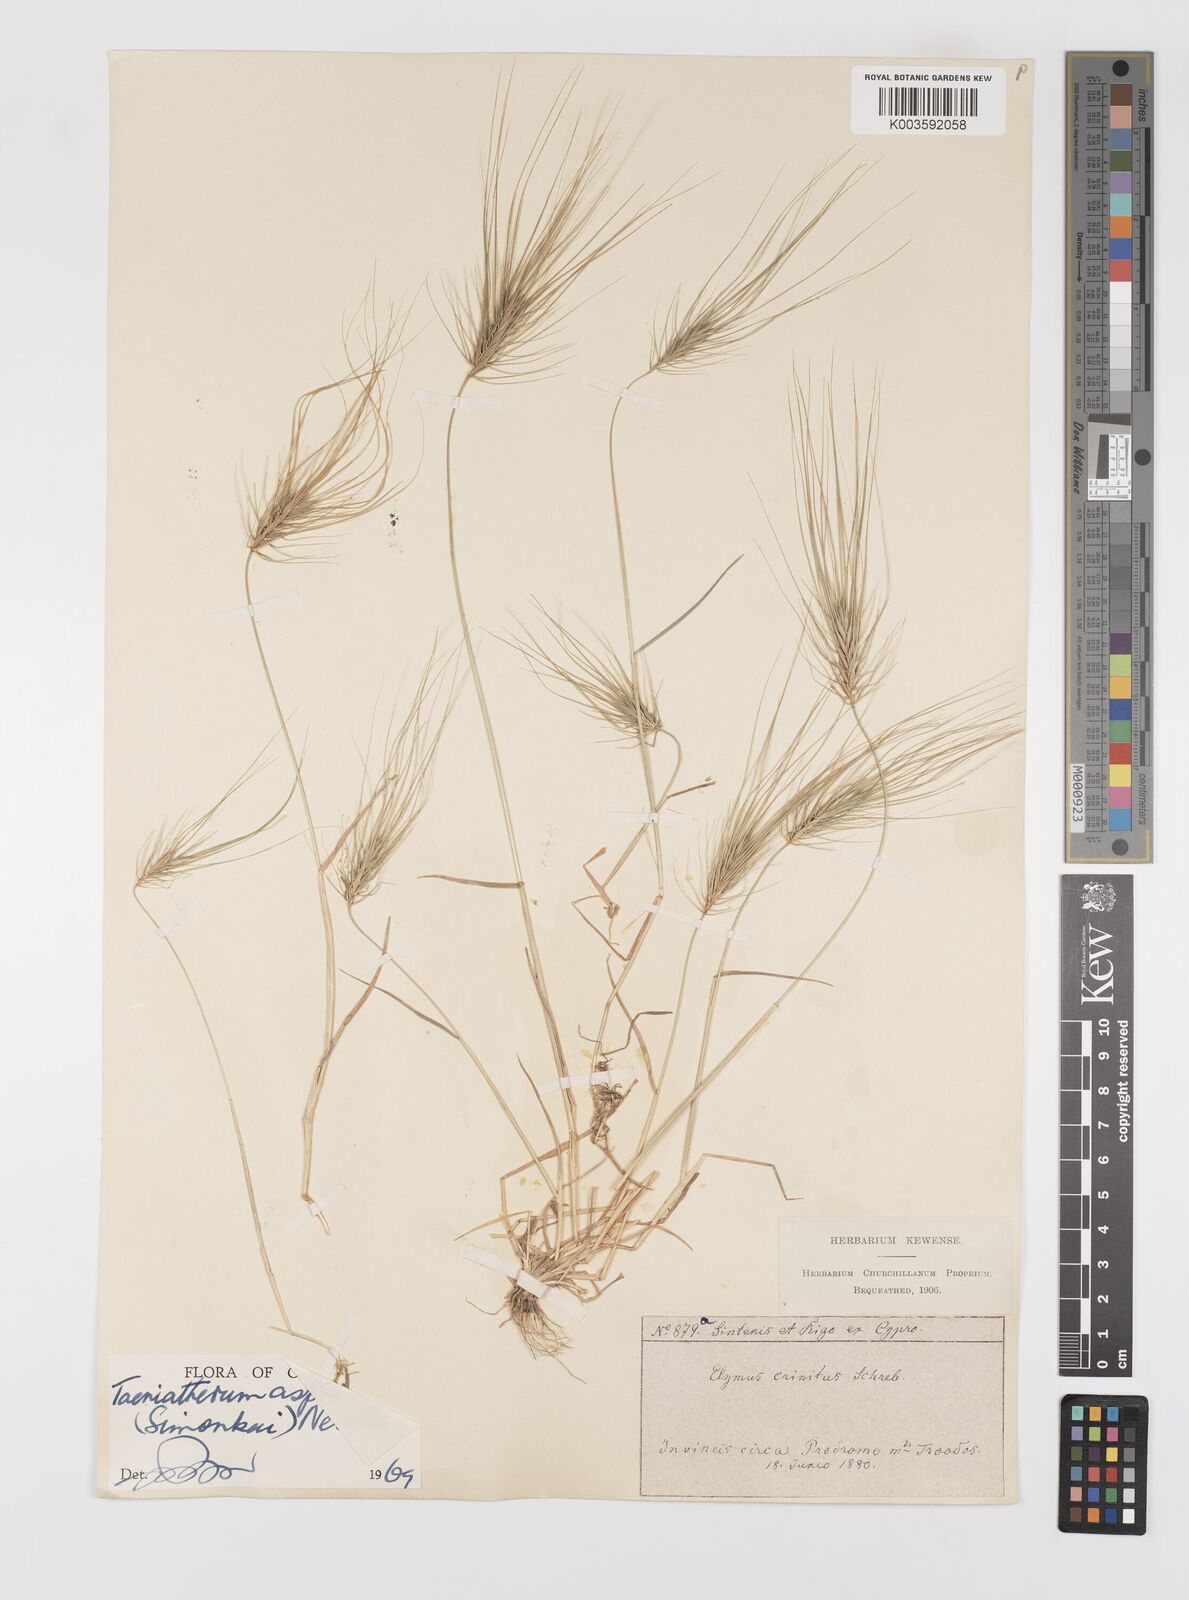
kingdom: Plantae
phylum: Tracheophyta
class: Liliopsida
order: Poales
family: Poaceae
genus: Taeniatherum
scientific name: Taeniatherum caput-medusae
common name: Medusahead
